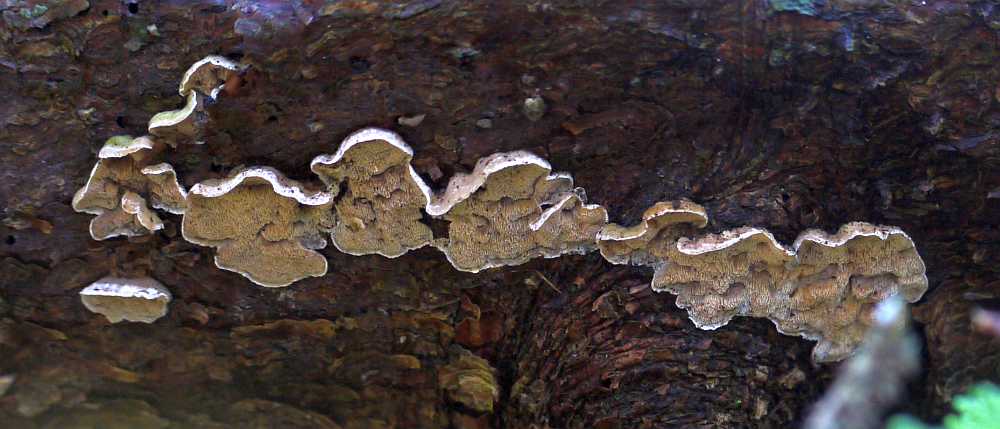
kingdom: Fungi
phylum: Basidiomycota
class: Agaricomycetes
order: Polyporales
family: Incrustoporiaceae
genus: Skeletocutis
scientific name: Skeletocutis carneogrisea
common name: rødgrå krystalporesvamp
